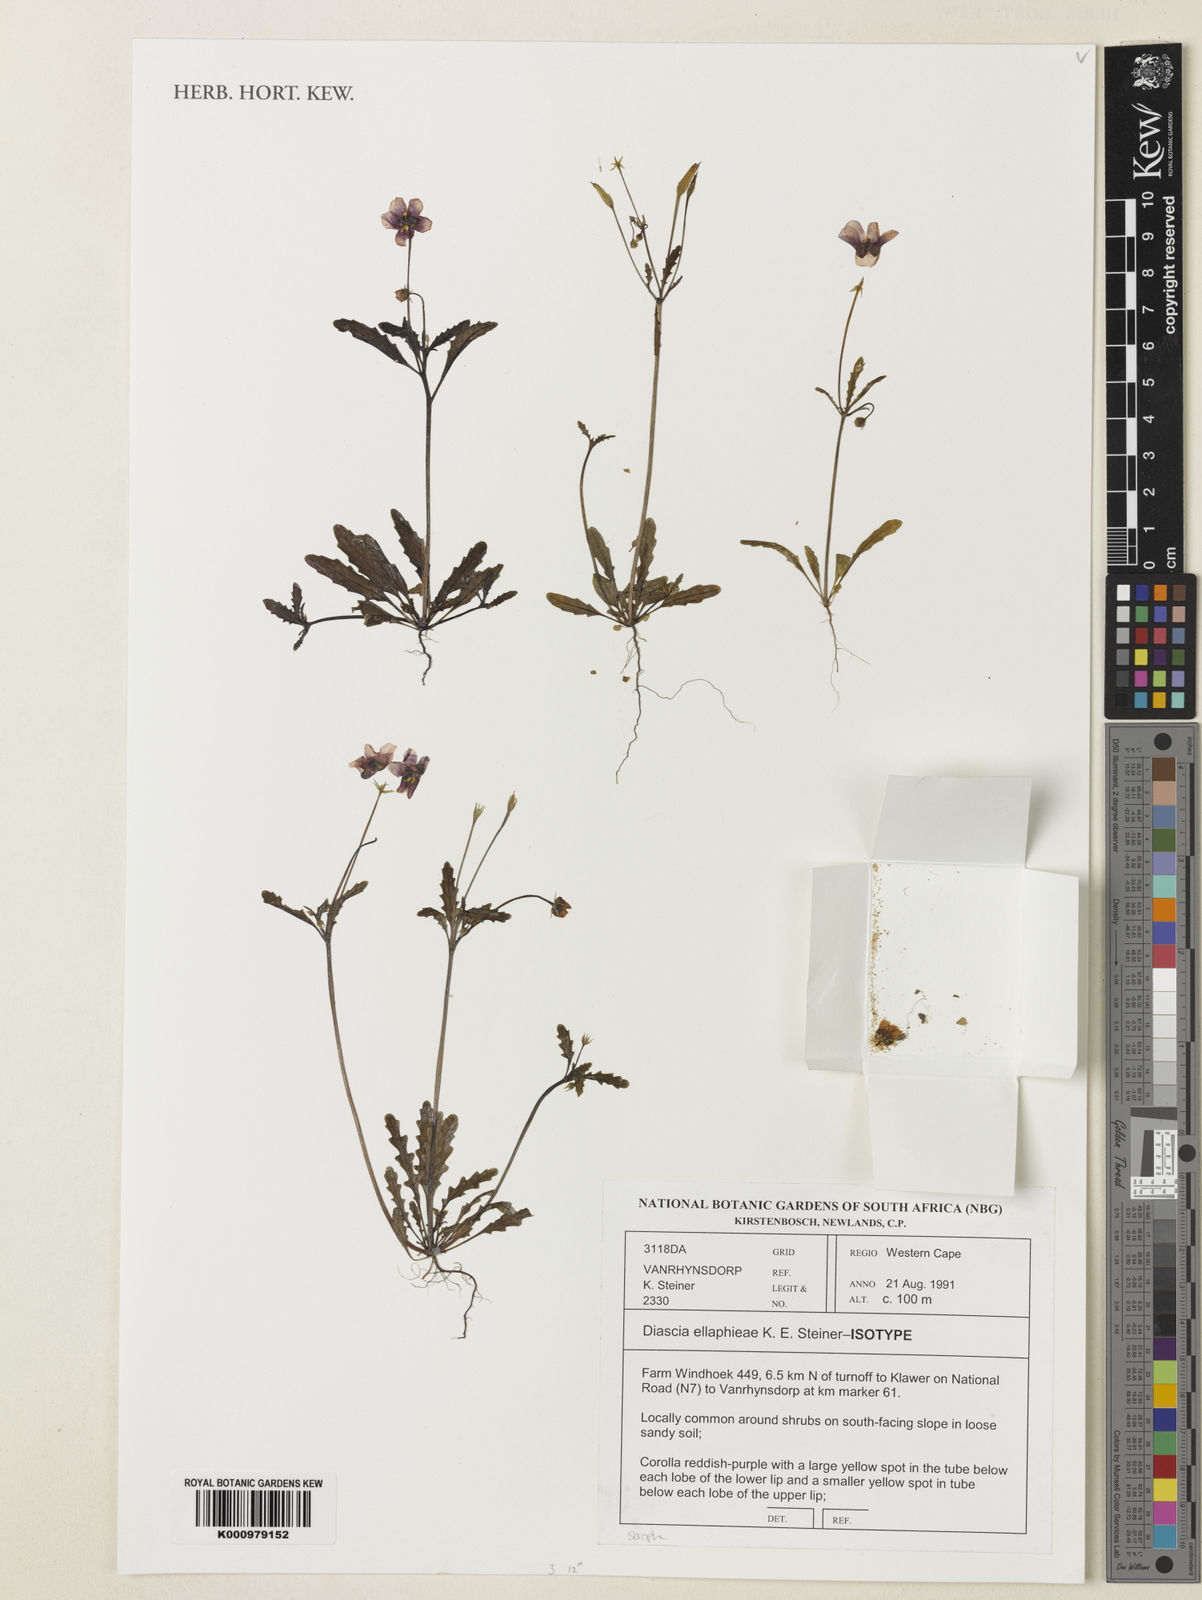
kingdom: Plantae
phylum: Tracheophyta
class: Magnoliopsida
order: Lamiales
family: Scrophulariaceae
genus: Diascia
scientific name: Diascia ellaphieae
